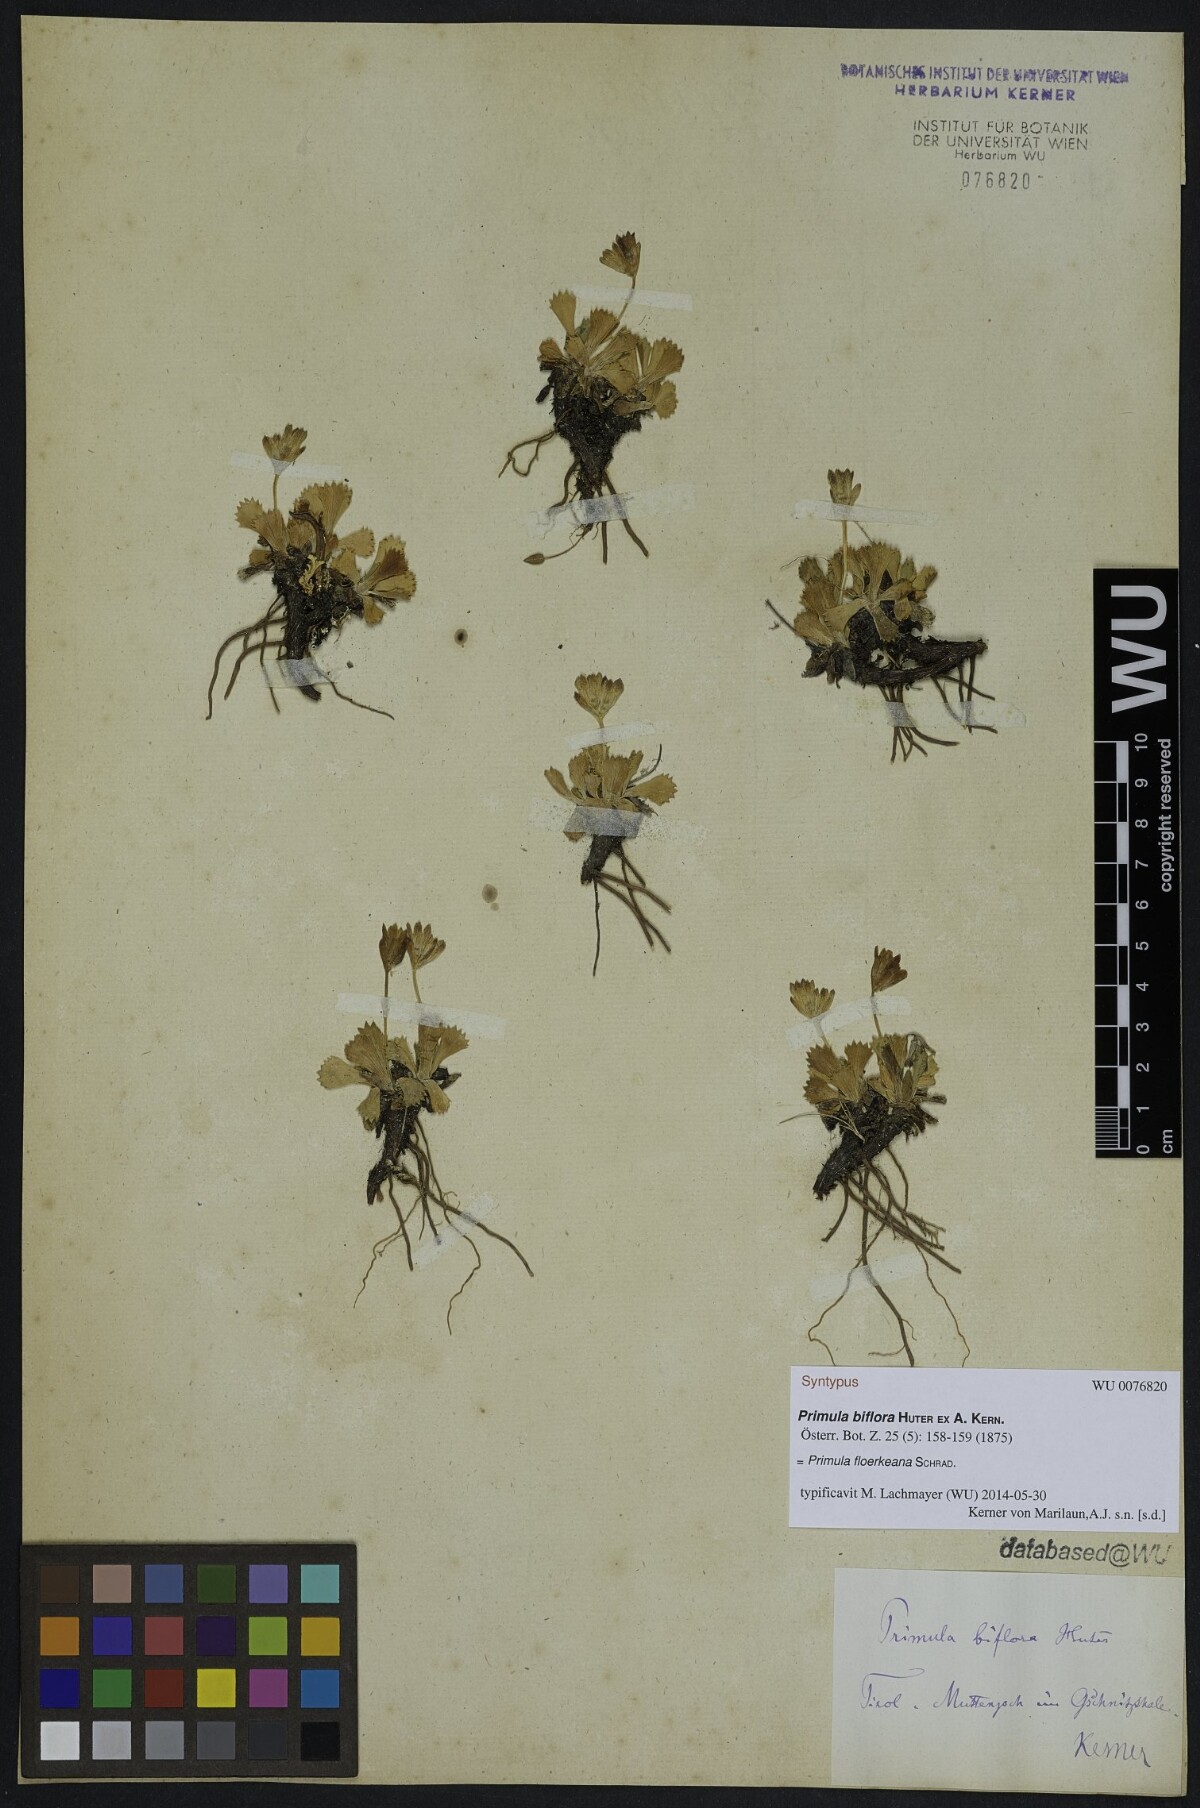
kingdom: Plantae
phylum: Tracheophyta
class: Magnoliopsida
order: Ericales
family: Primulaceae
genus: Primula
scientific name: Primula floerkeana
